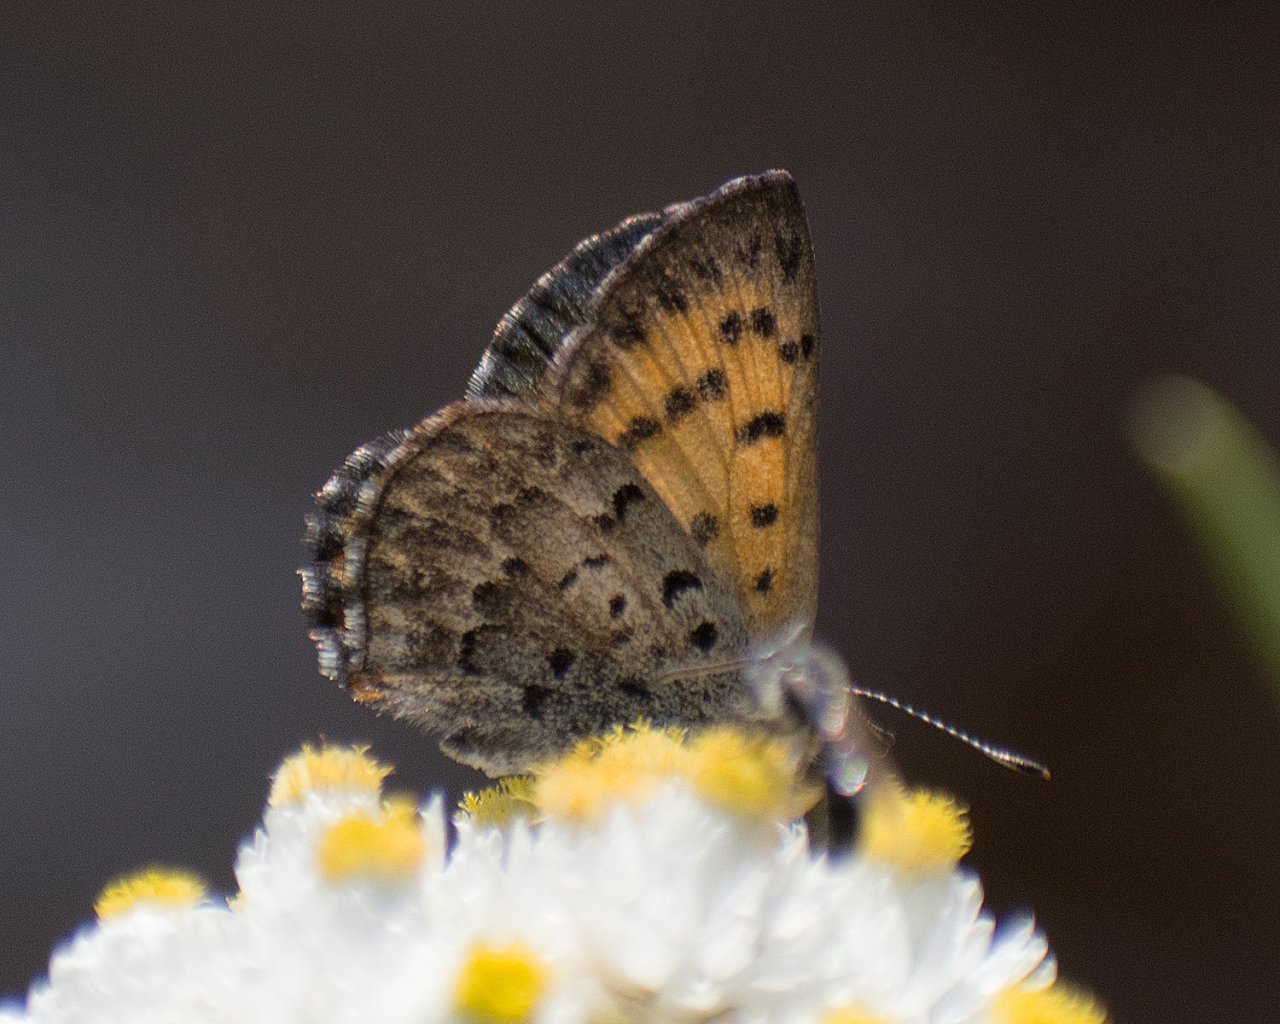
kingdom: Animalia
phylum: Arthropoda
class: Insecta
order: Lepidoptera
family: Lycaenidae
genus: Lycaena
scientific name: Lycaena mariposa
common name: Mariposa Copper
